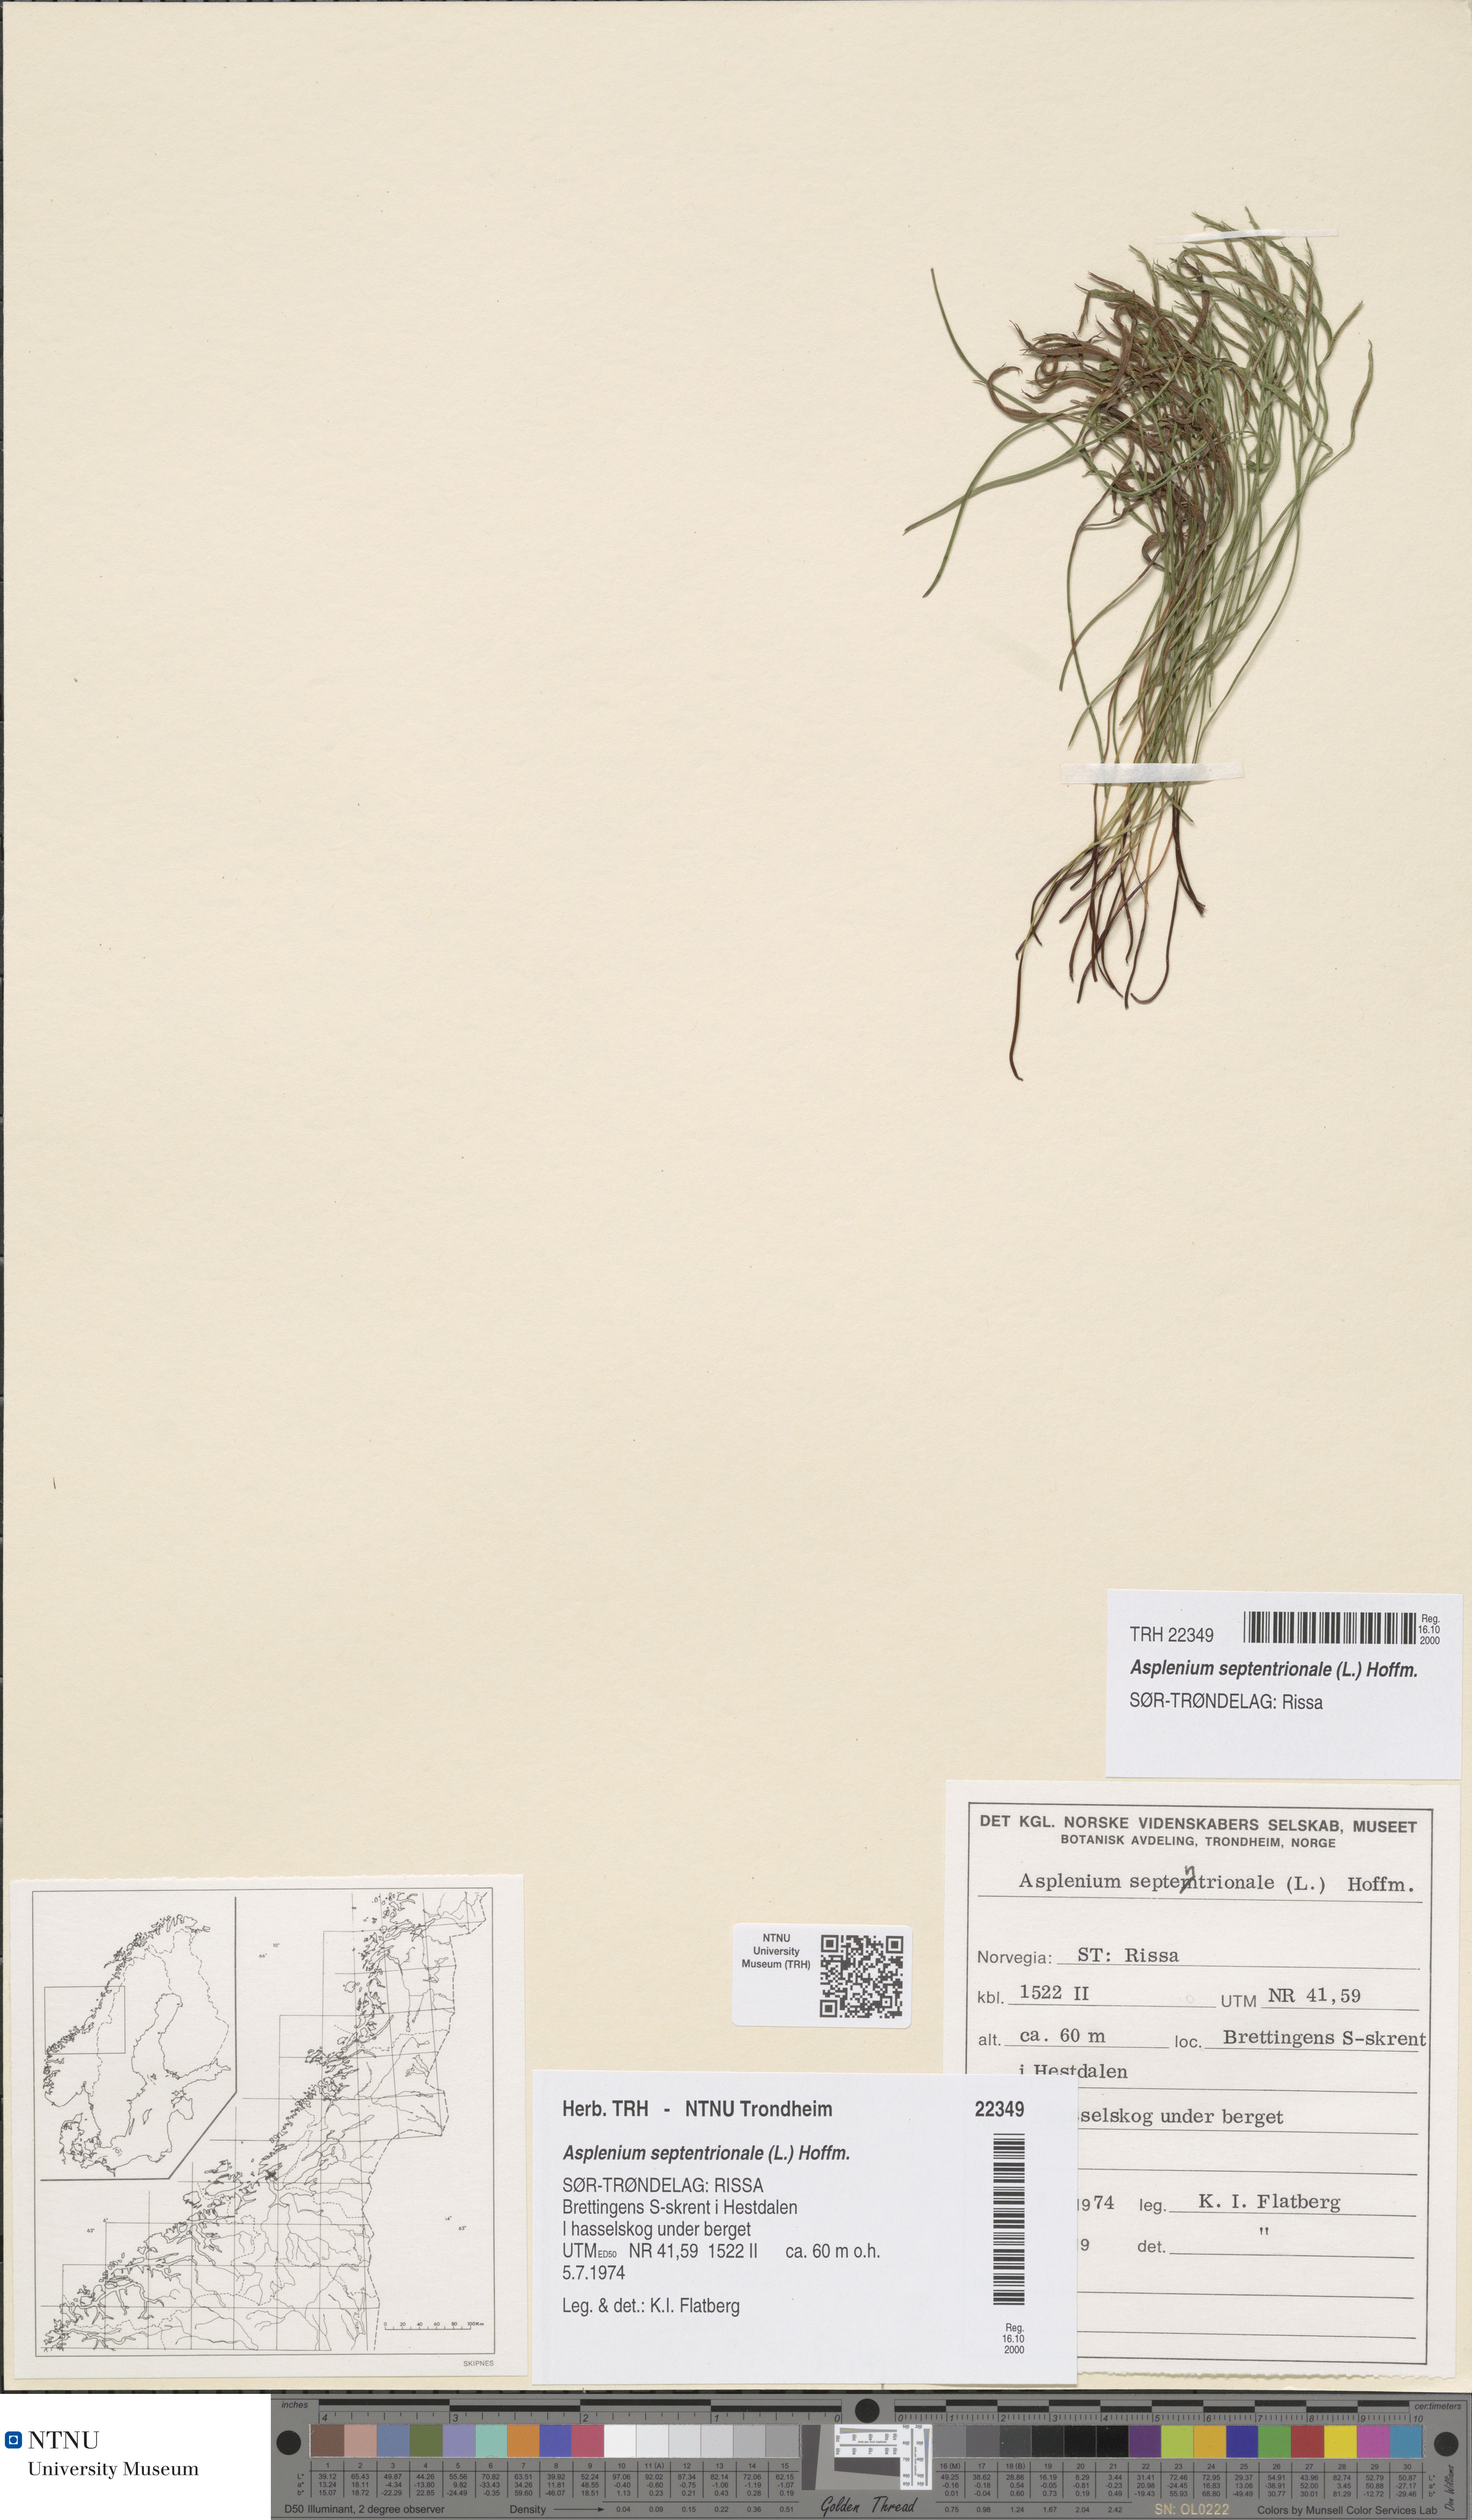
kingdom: Plantae
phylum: Tracheophyta
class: Polypodiopsida
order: Polypodiales
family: Aspleniaceae
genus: Asplenium
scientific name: Asplenium septentrionale
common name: Forked spleenwort
